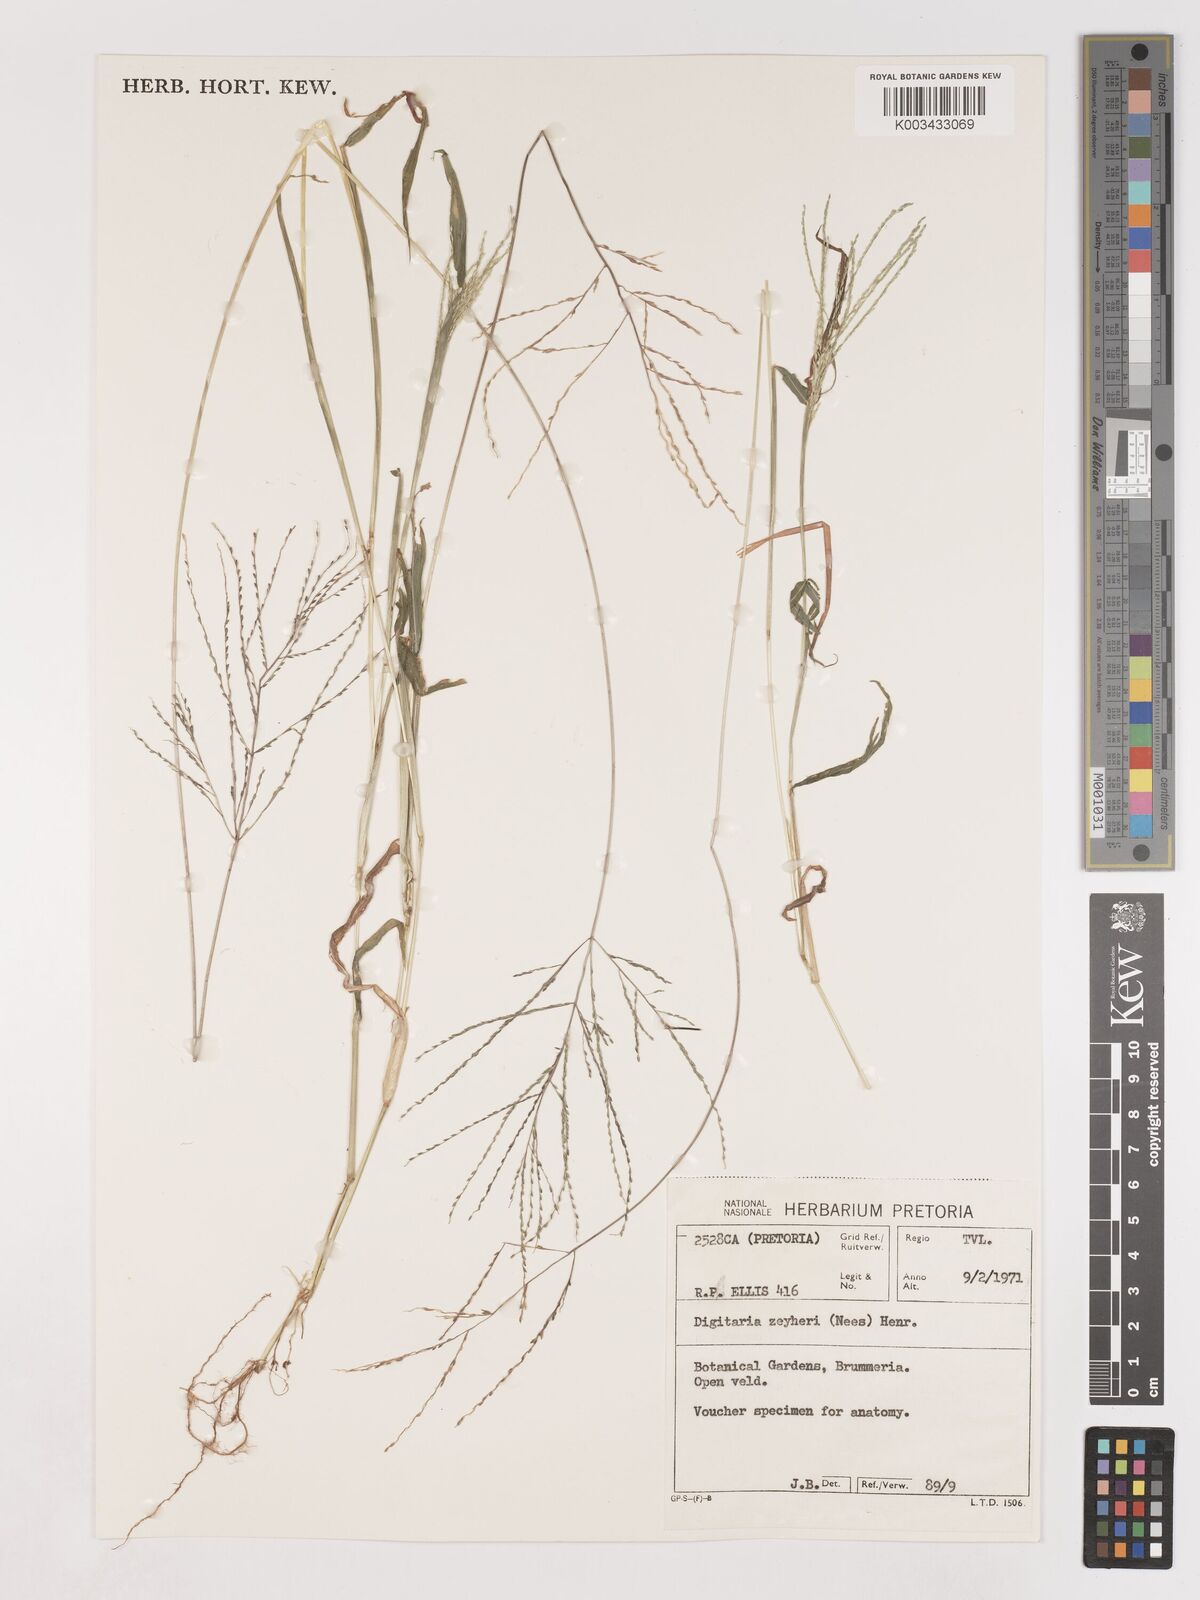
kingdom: Plantae
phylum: Tracheophyta
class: Liliopsida
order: Poales
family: Poaceae
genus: Digitaria
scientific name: Digitaria velutina
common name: Long-plume finger grass
